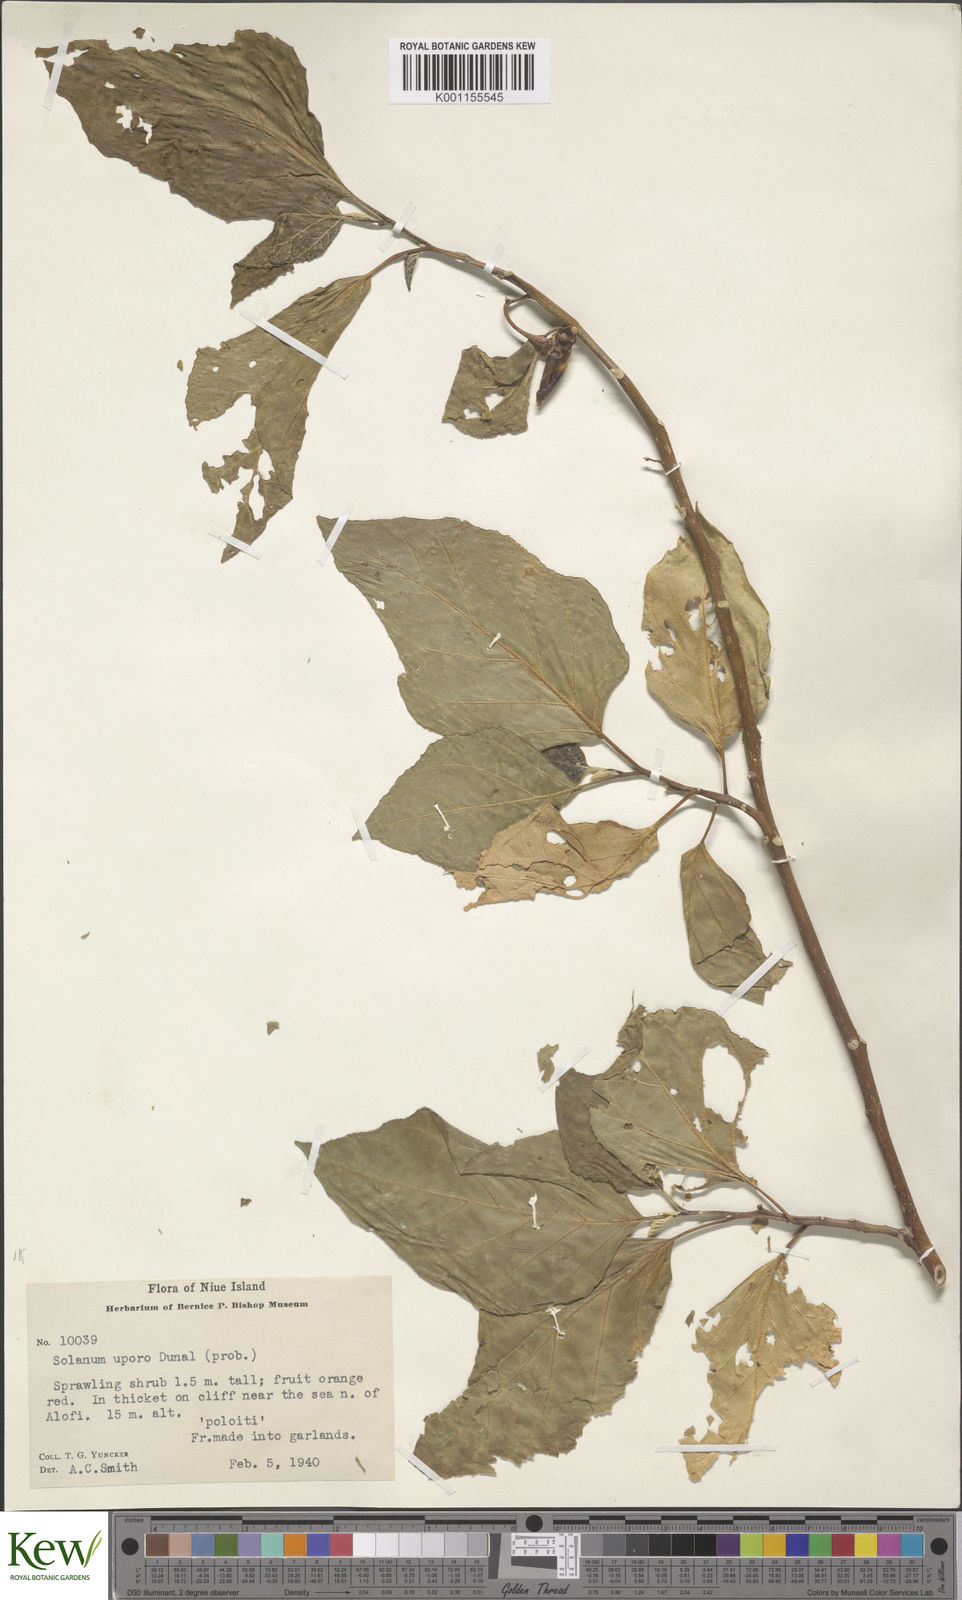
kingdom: Plantae
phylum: Tracheophyta
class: Magnoliopsida
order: Solanales
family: Solanaceae
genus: Solanum
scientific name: Solanum viride
